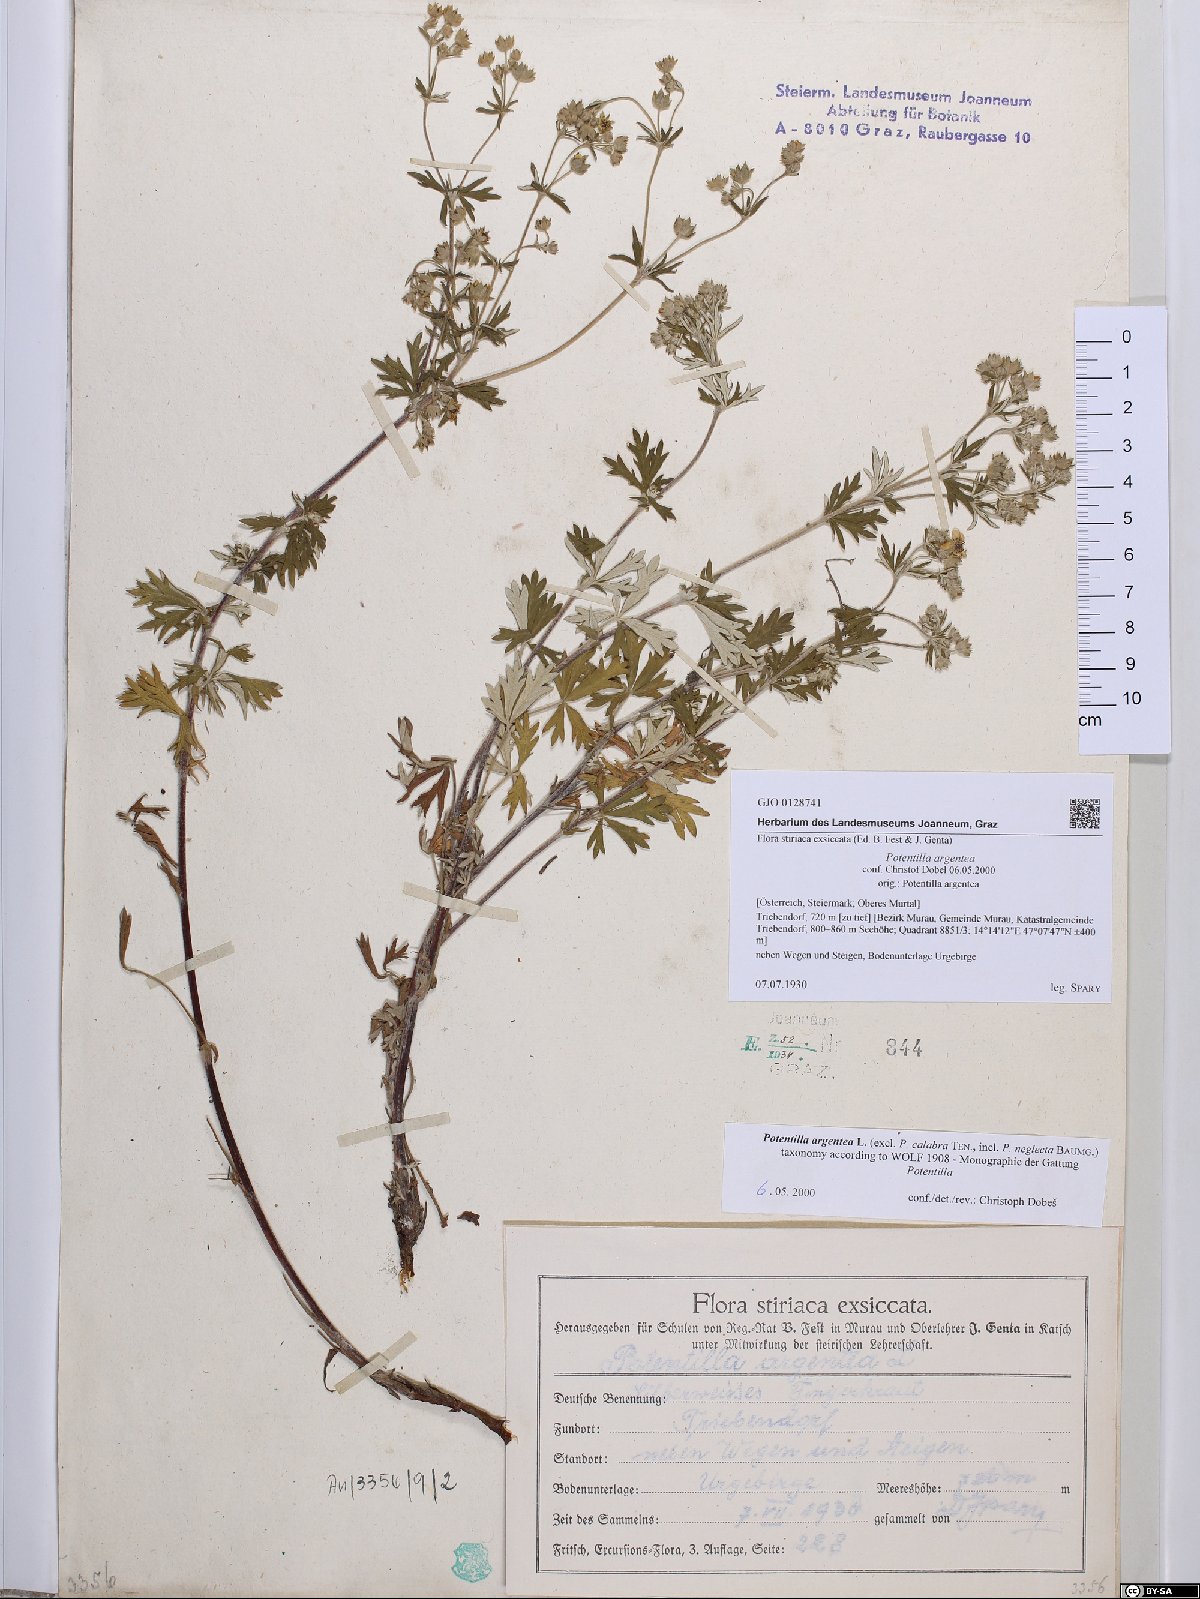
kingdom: Plantae
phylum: Tracheophyta
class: Magnoliopsida
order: Rosales
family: Rosaceae
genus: Potentilla
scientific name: Potentilla argentea
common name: Hoary cinquefoil
